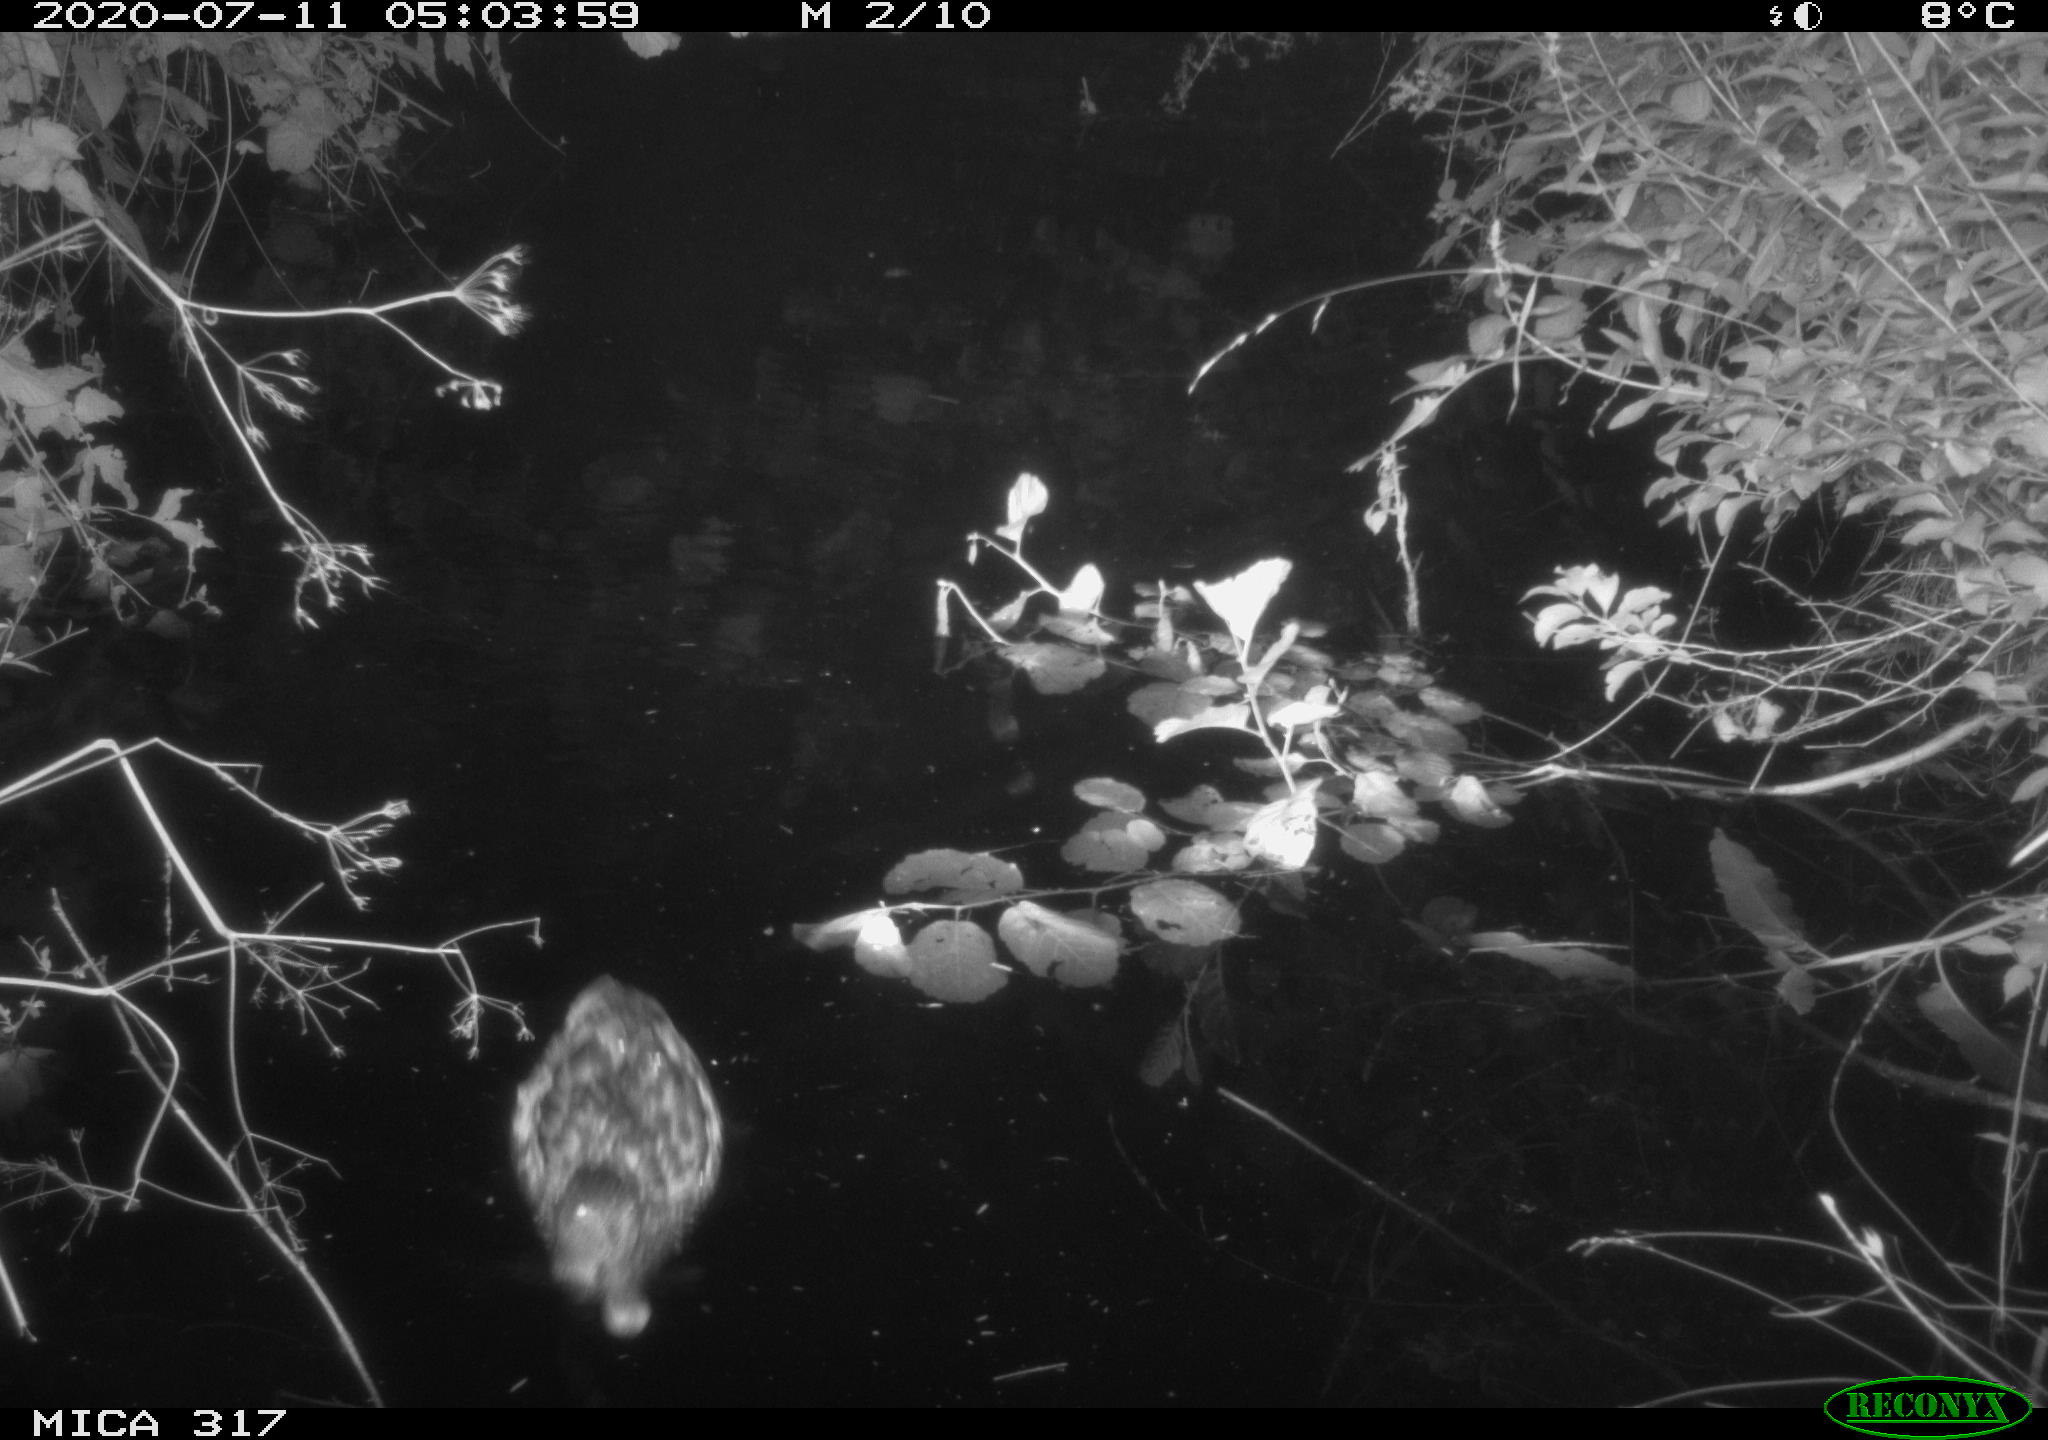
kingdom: Animalia
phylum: Chordata
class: Aves
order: Anseriformes
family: Anatidae
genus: Anas
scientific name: Anas platyrhynchos
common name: Mallard
